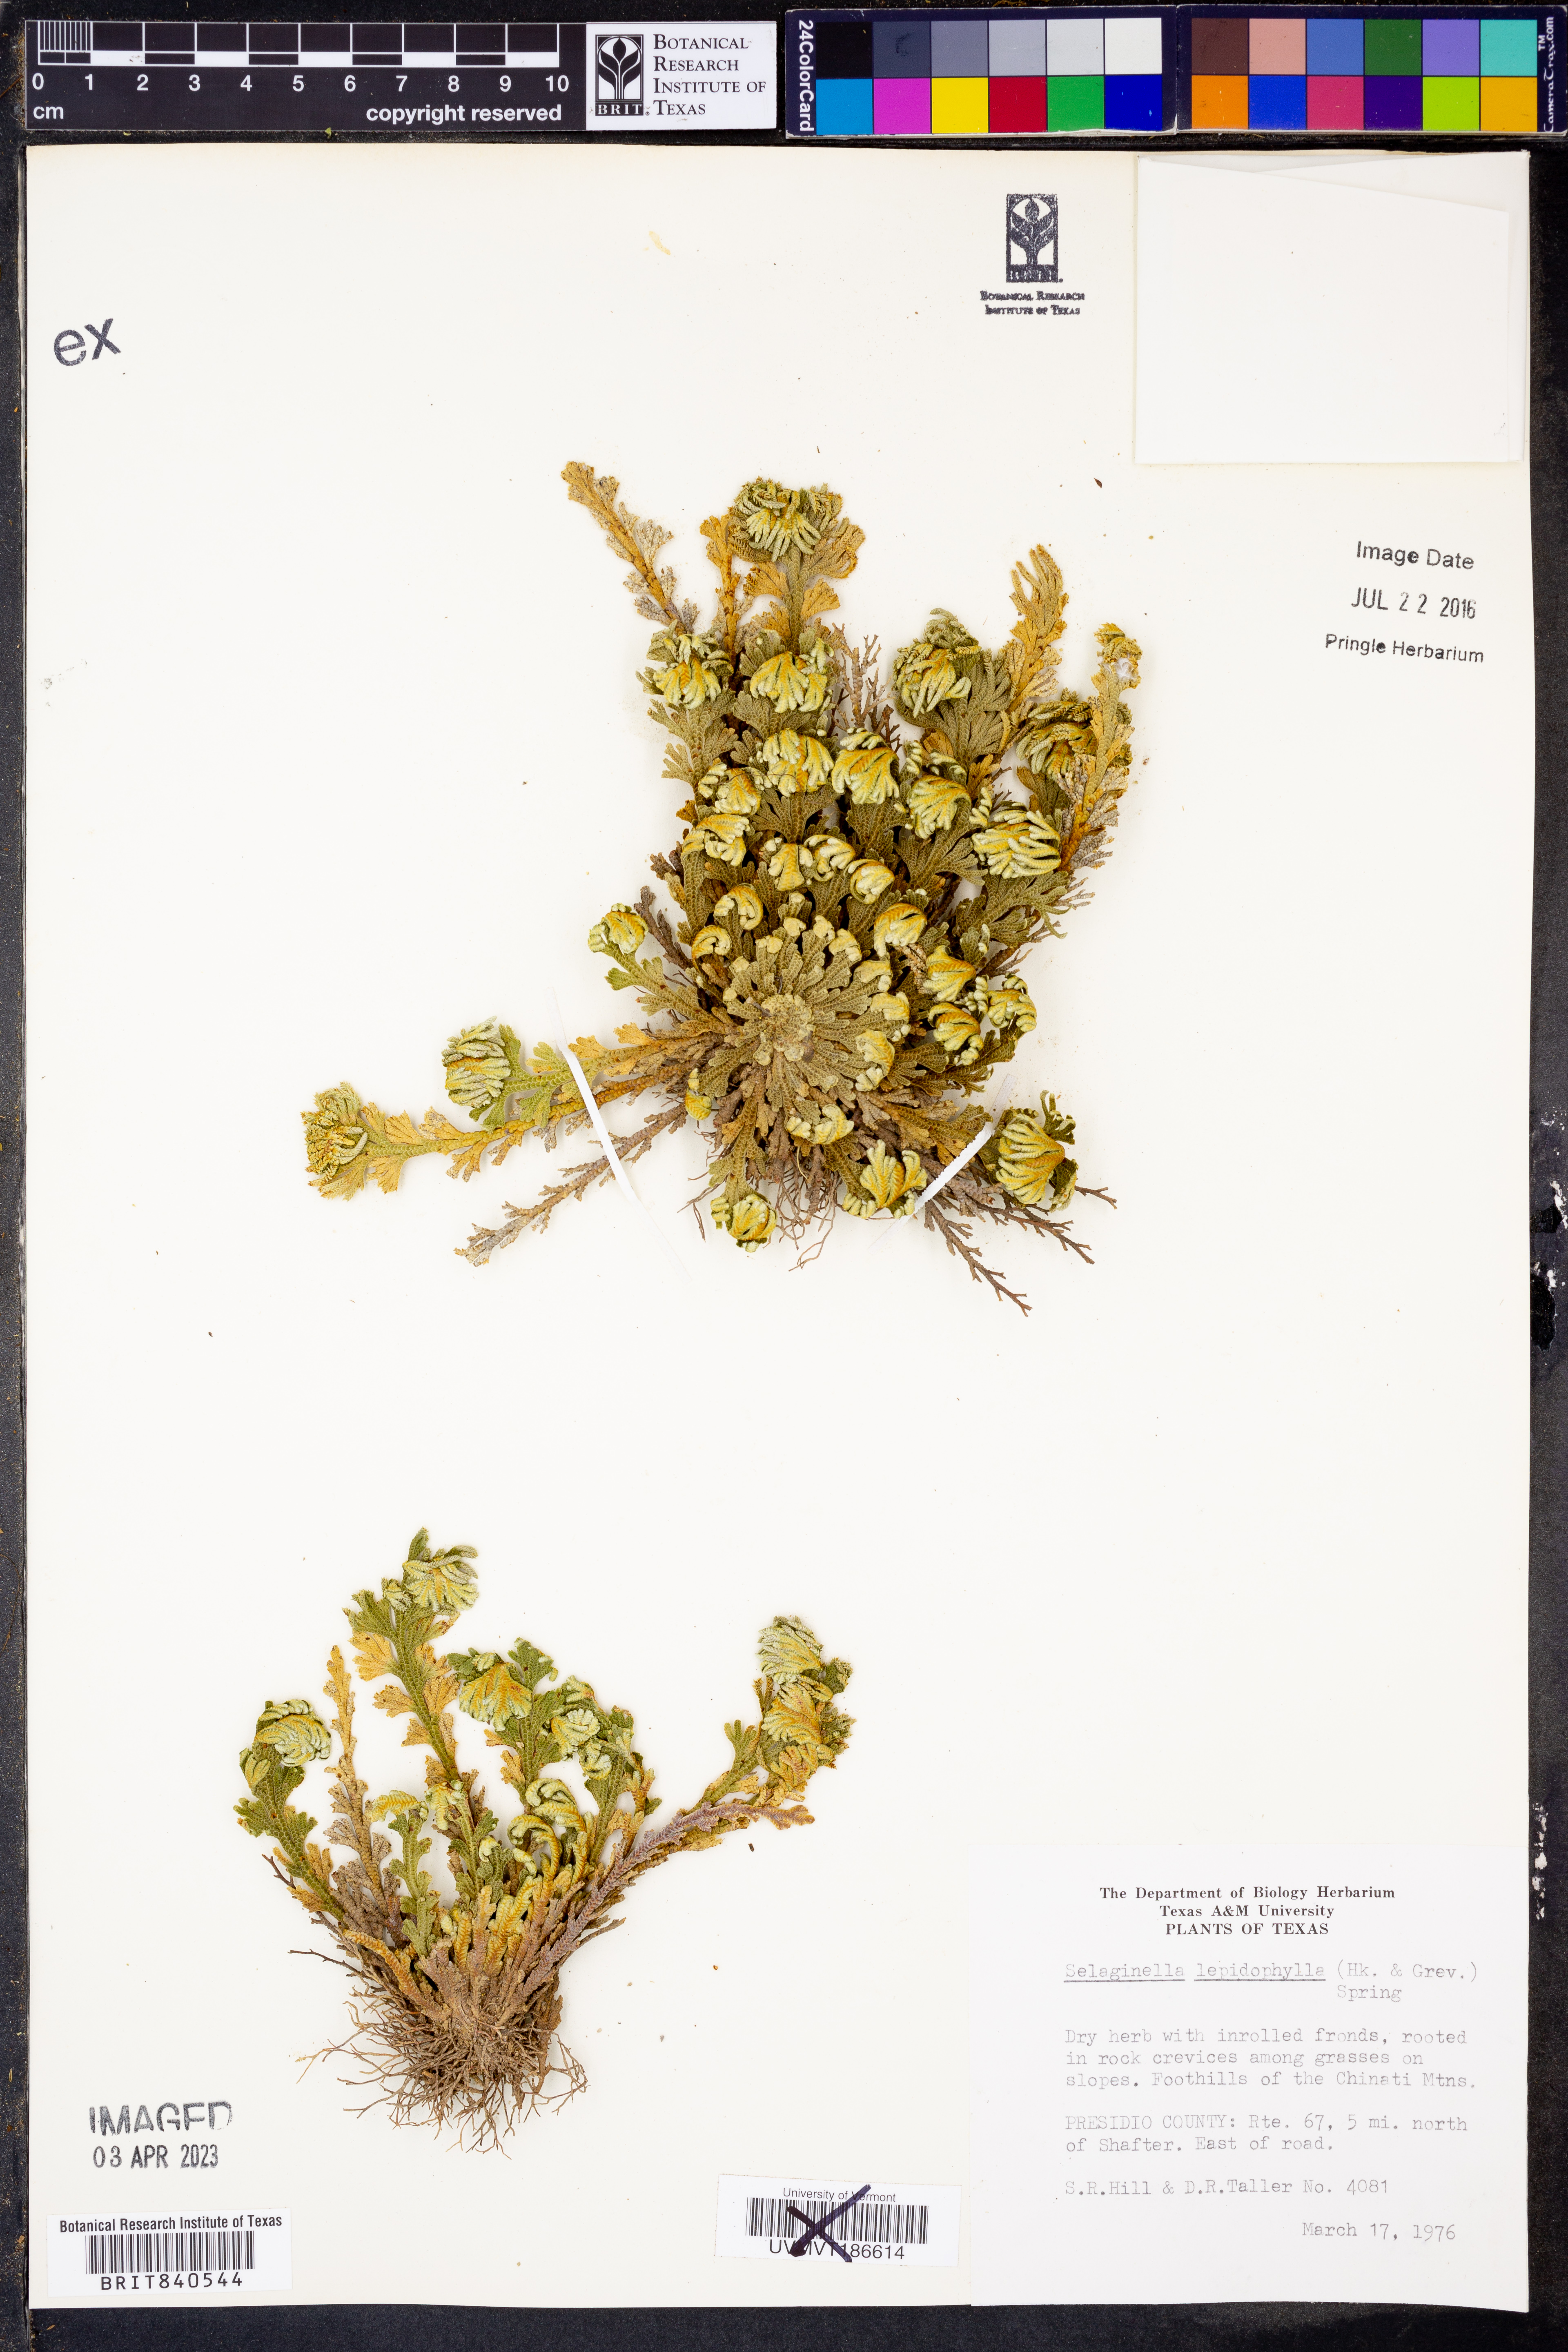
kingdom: Plantae
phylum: Tracheophyta
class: Lycopodiopsida
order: Selaginellales
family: Selaginellaceae
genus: Selaginella
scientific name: Selaginella lepidophylla
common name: Rose-of-jericho
